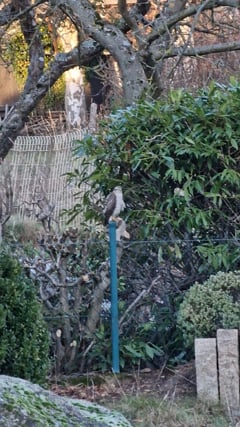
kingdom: Animalia
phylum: Chordata
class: Aves
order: Accipitriformes
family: Accipitridae
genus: Accipiter
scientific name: Accipiter nisus
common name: Eurasian sparrowhawk
